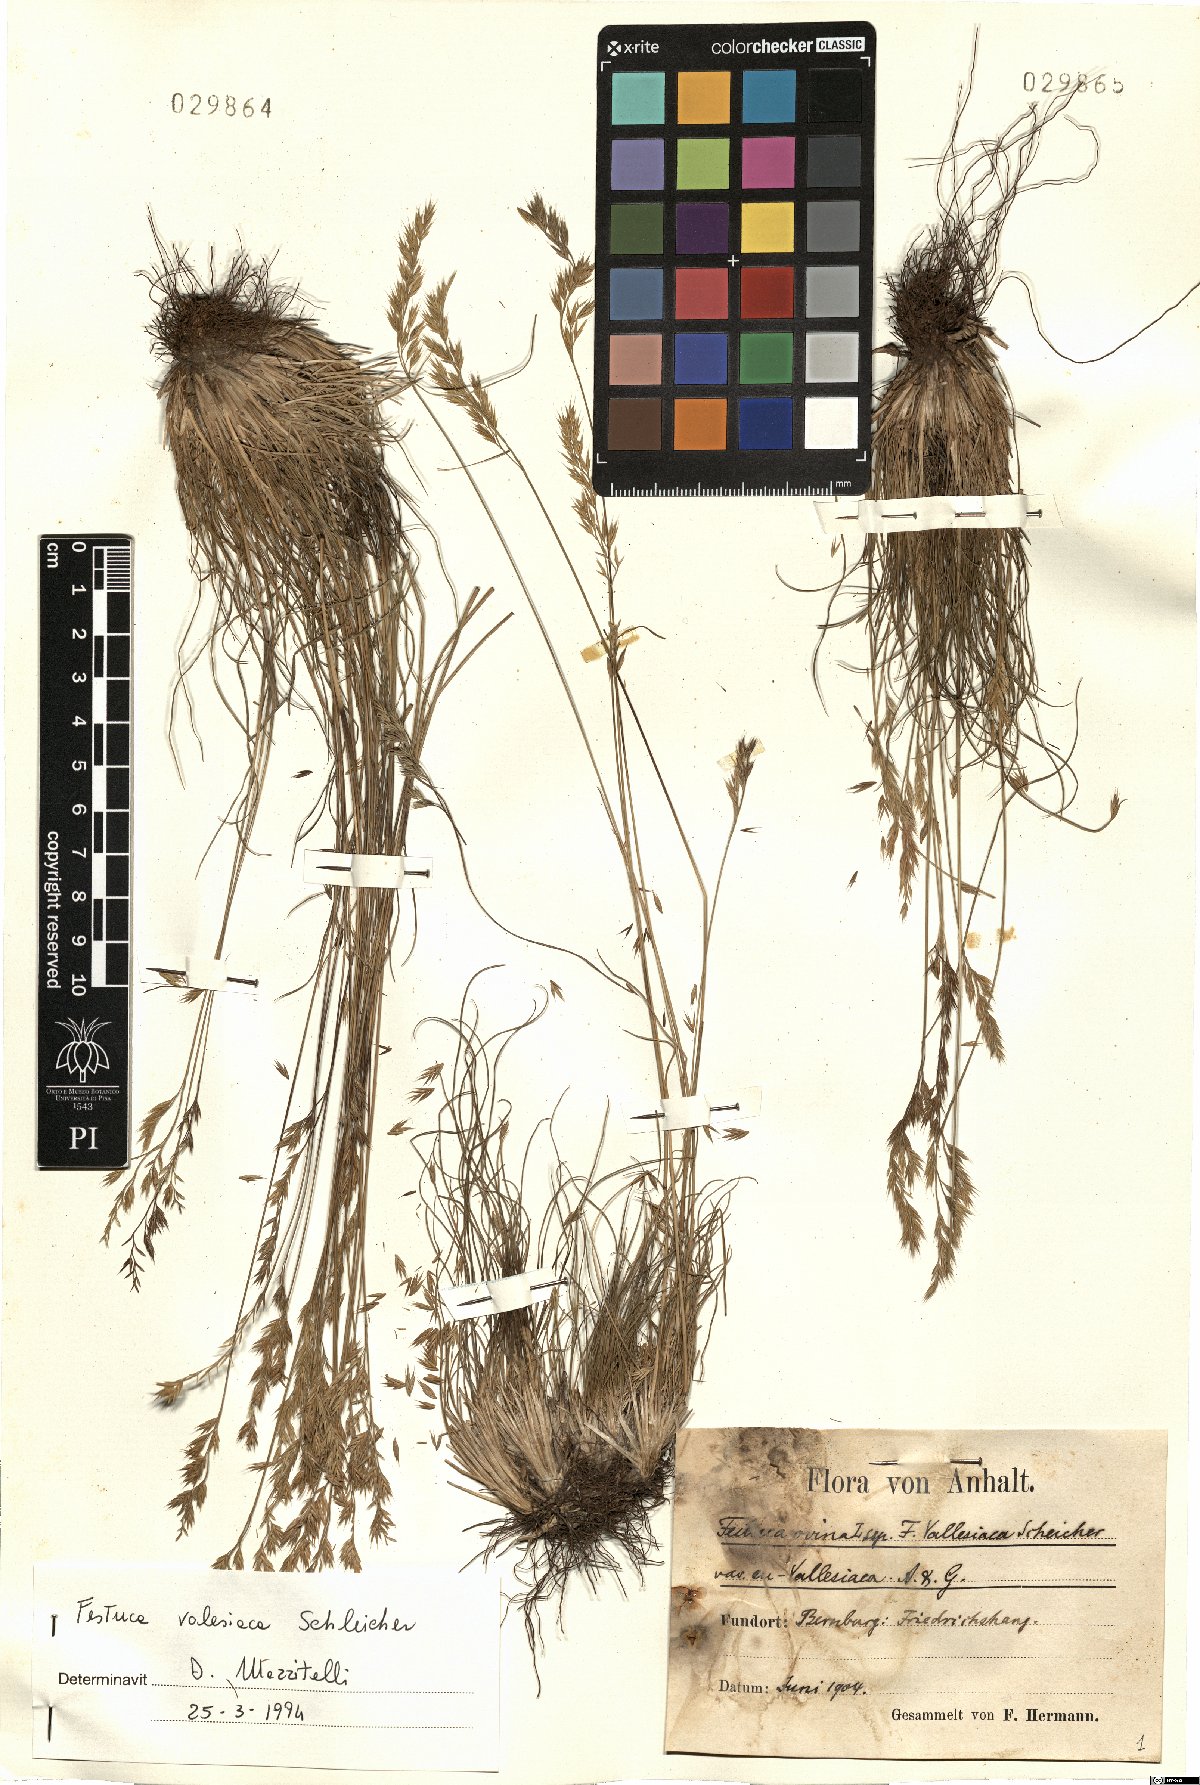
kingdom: Plantae
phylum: Tracheophyta
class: Liliopsida
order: Poales
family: Poaceae
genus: Festuca
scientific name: Festuca valesiaca
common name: Volga fescue
